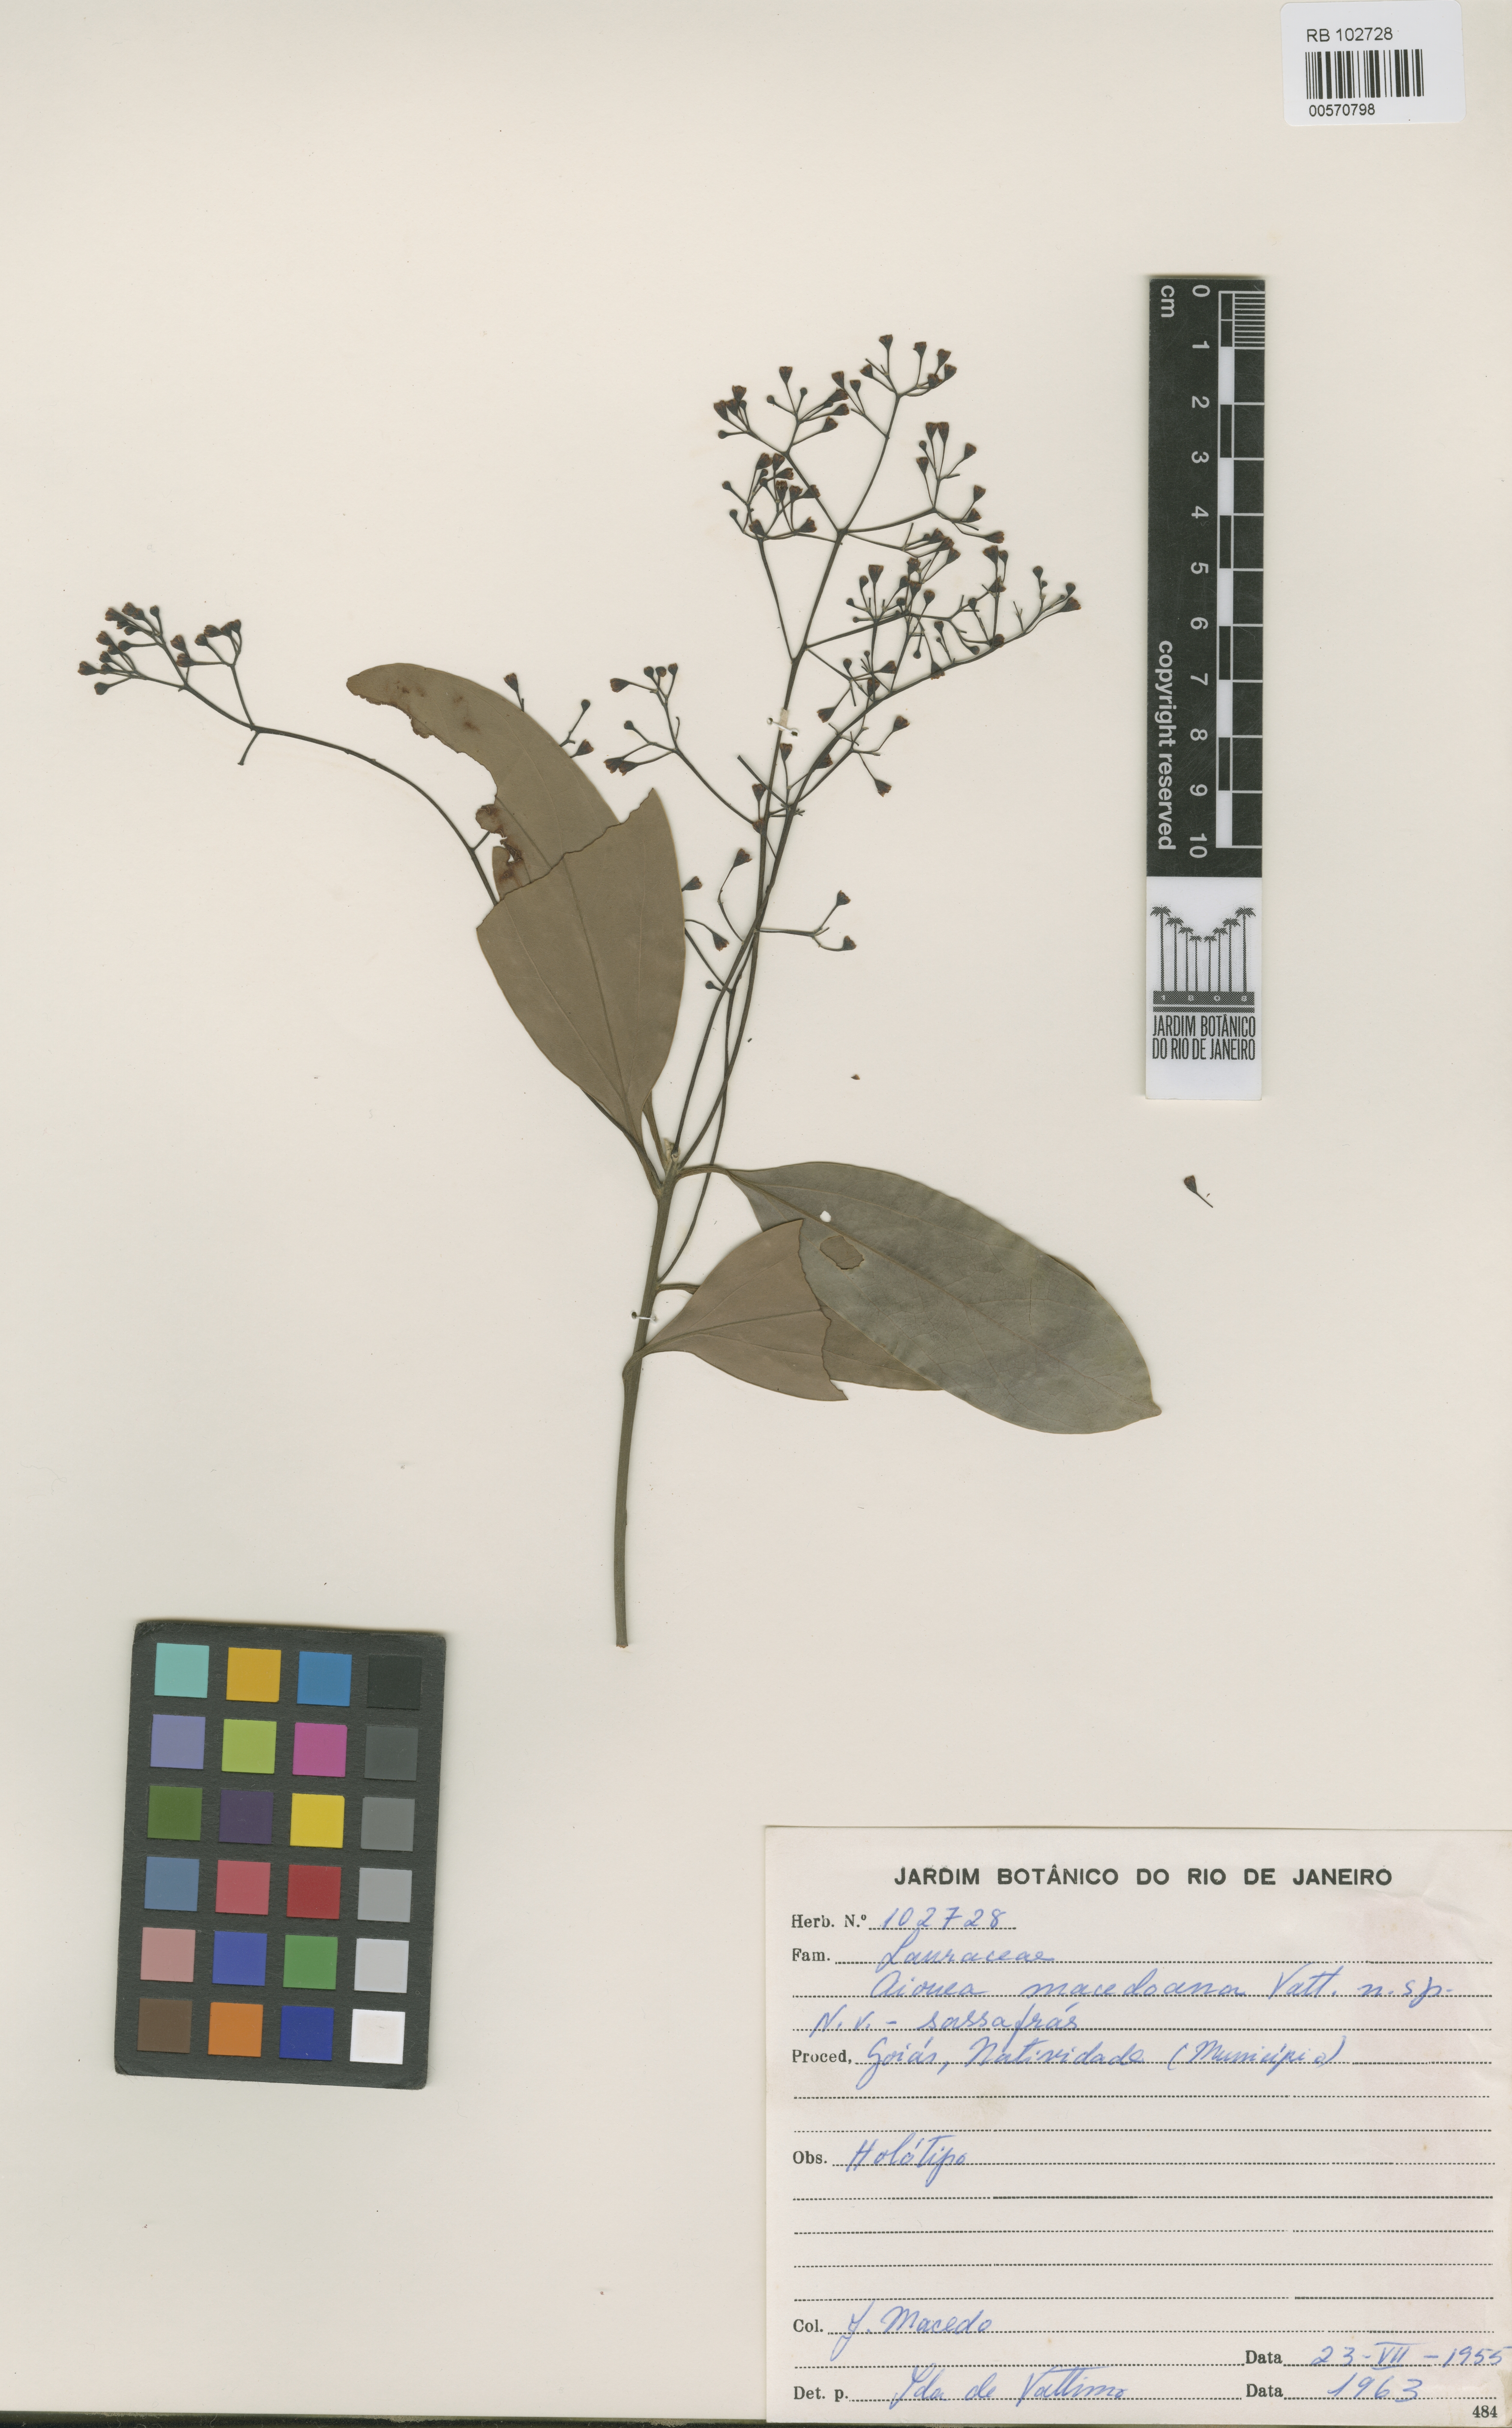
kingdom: Plantae
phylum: Tracheophyta
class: Magnoliopsida
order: Laurales
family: Lauraceae
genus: Aiouea
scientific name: Aiouea macedoana
